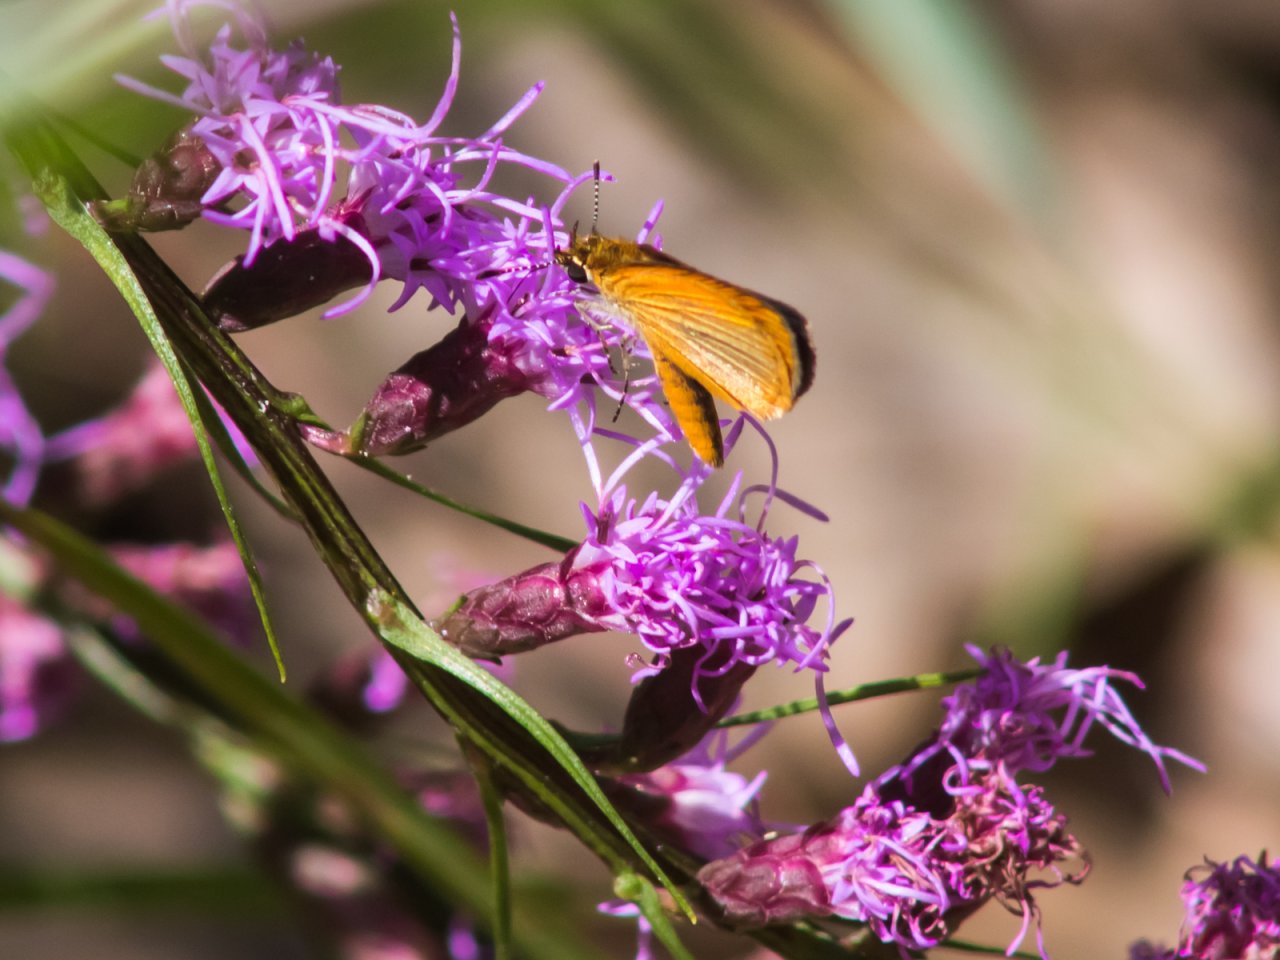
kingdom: Animalia
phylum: Arthropoda
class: Insecta
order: Lepidoptera
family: Hesperiidae
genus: Ancyloxypha
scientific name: Ancyloxypha numitor
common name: Least Skipper
